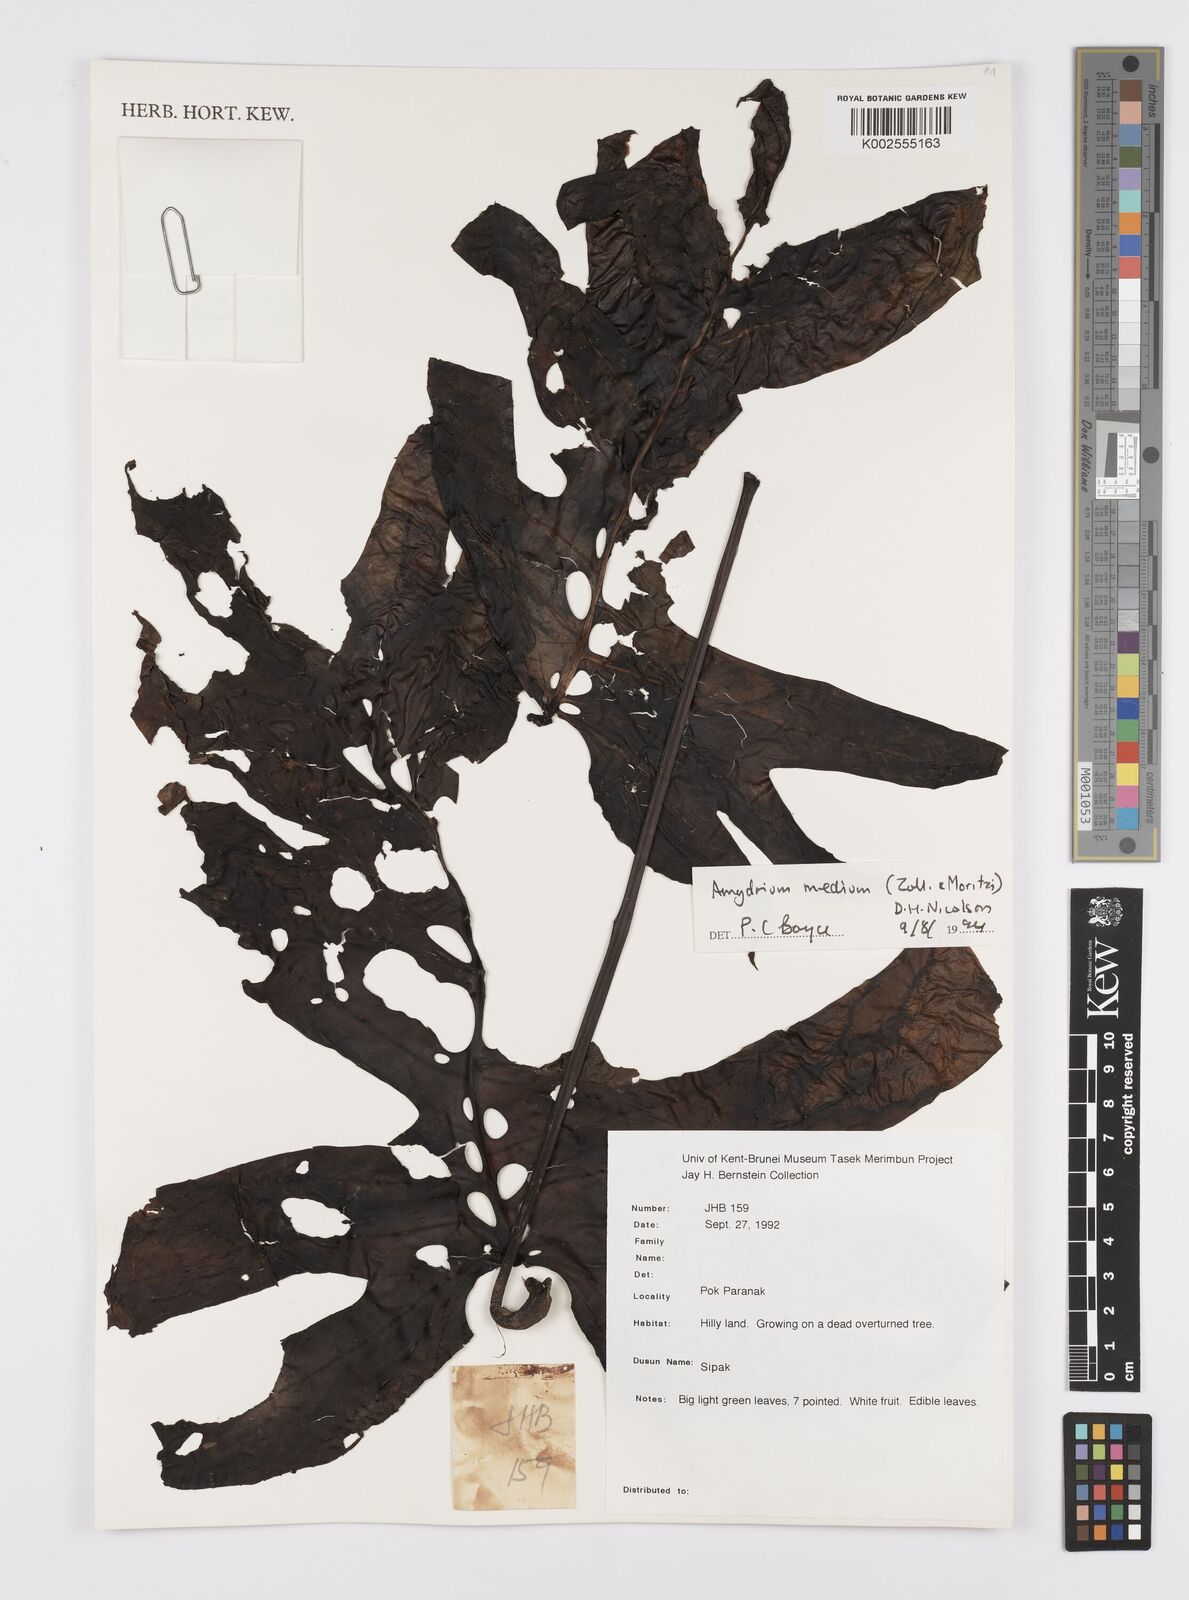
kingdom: Plantae
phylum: Tracheophyta
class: Liliopsida
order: Alismatales
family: Araceae
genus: Amydrium
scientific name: Amydrium medium
